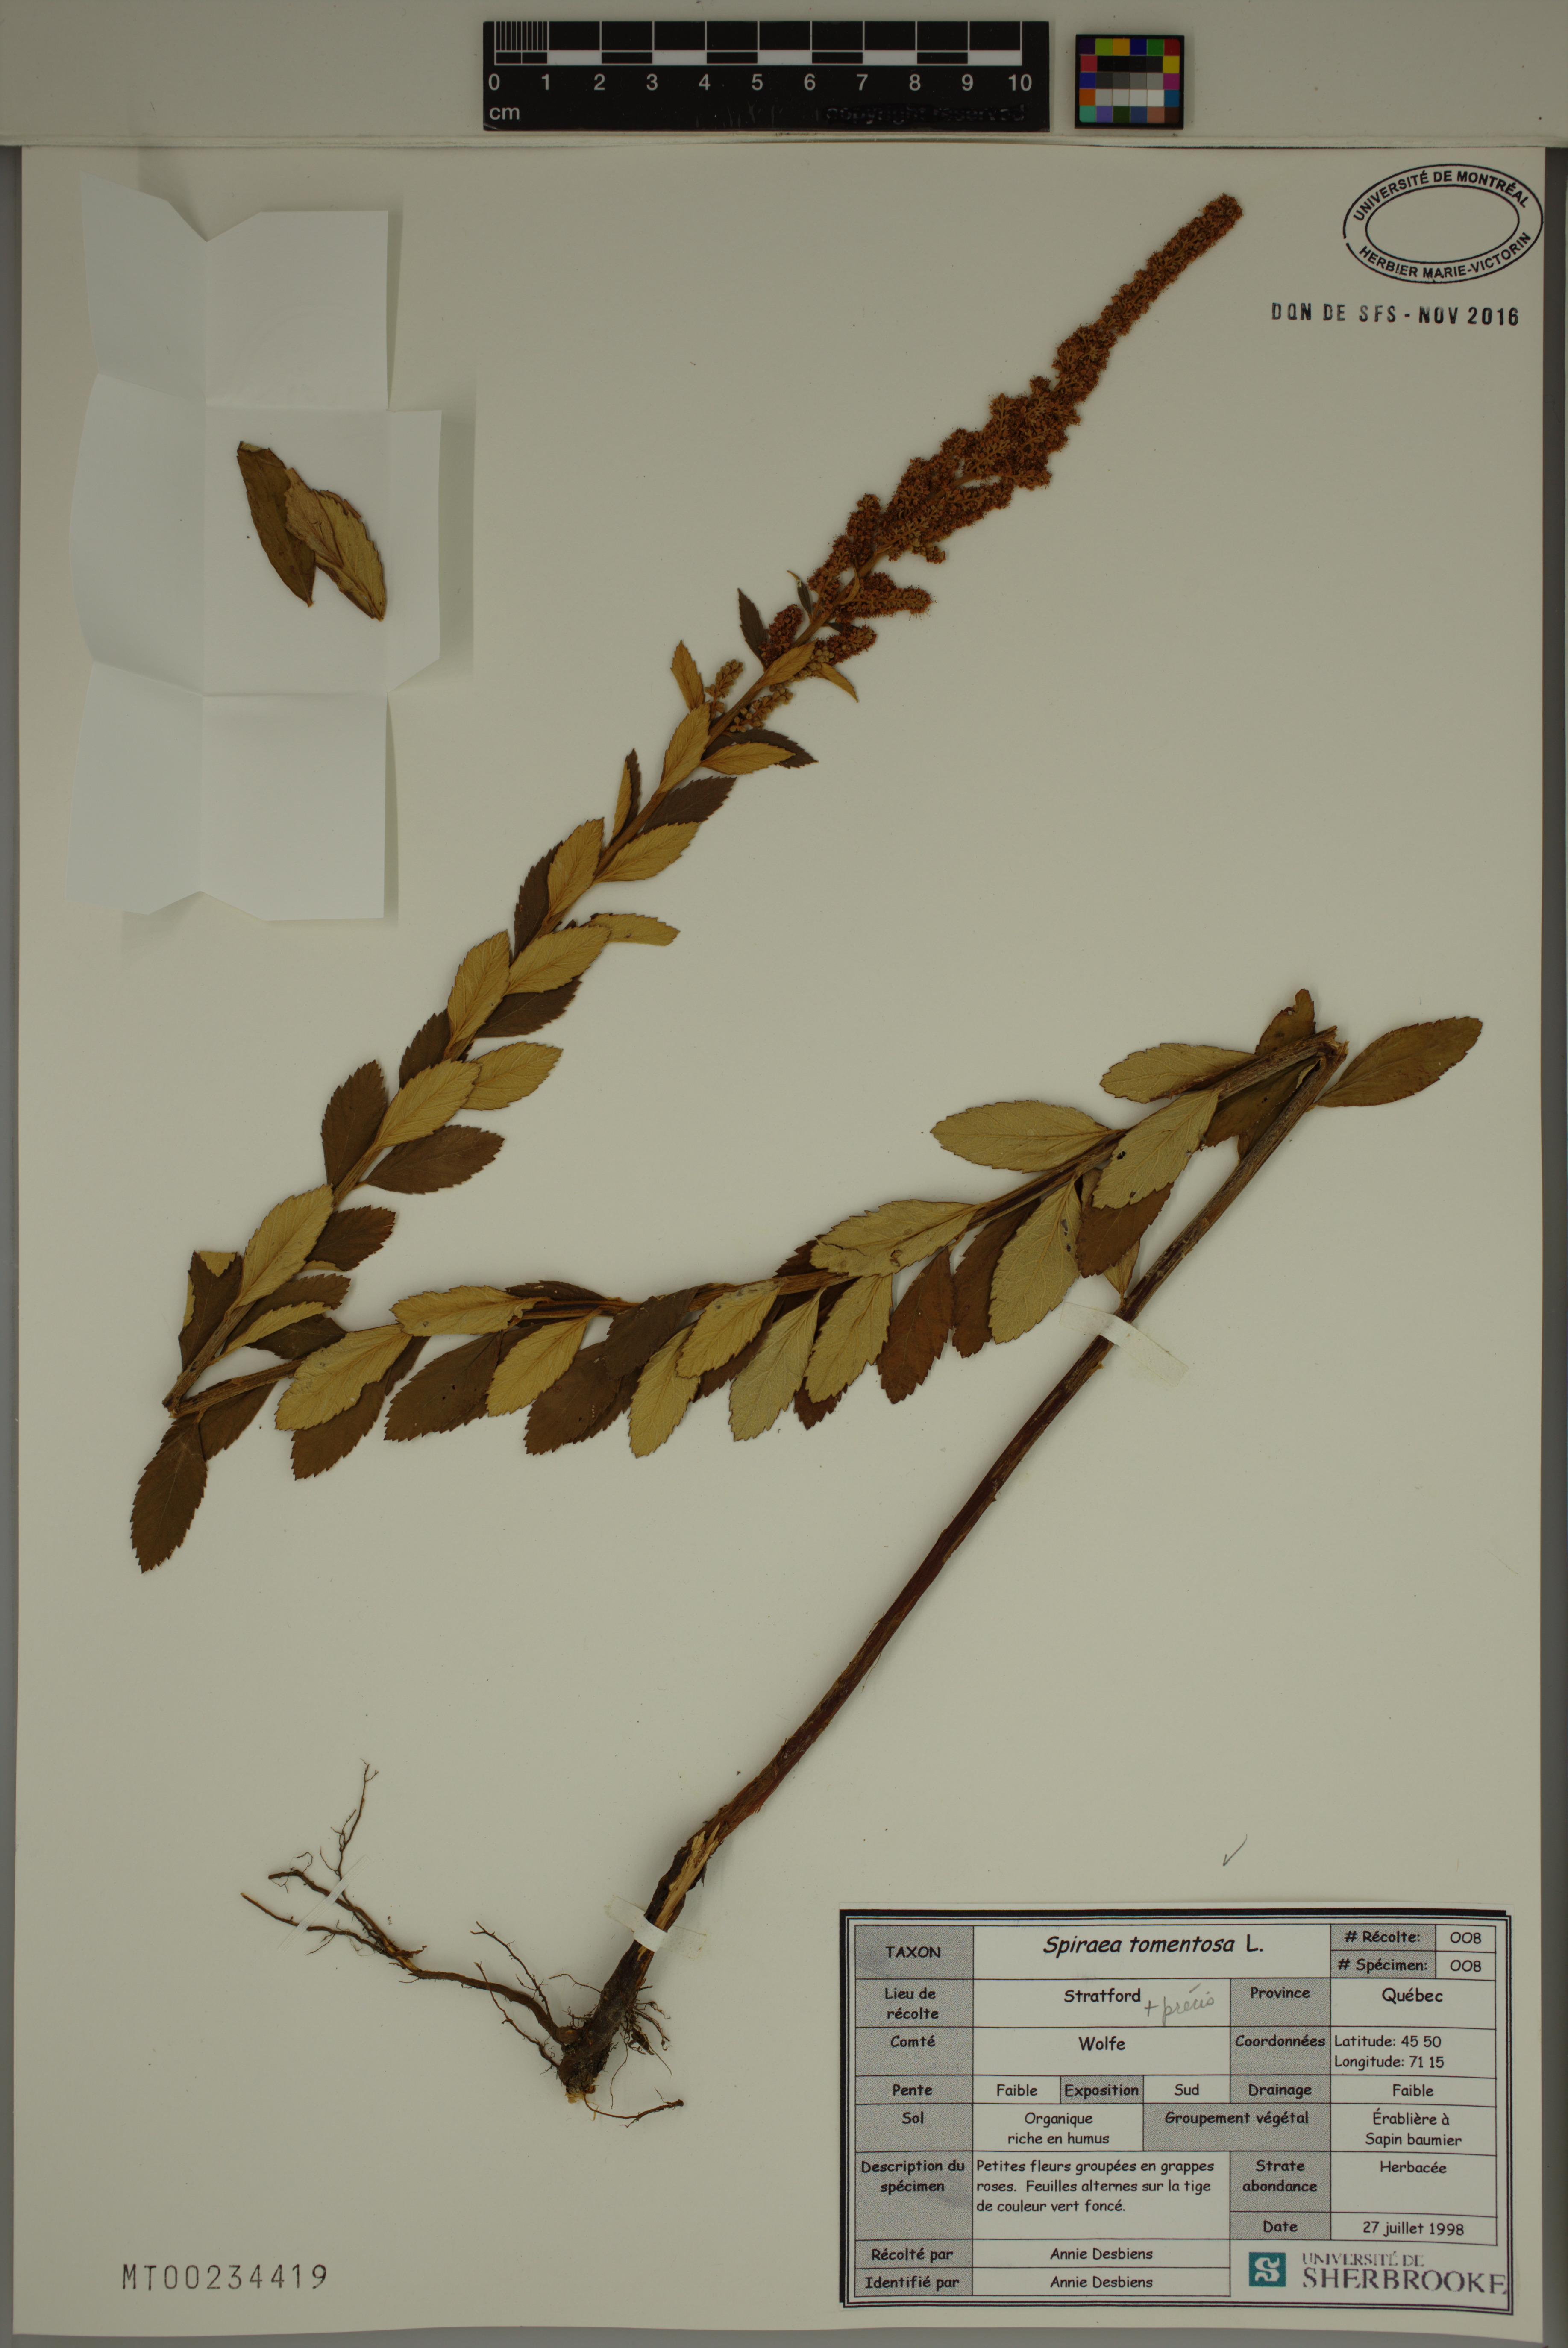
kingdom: Plantae
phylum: Tracheophyta
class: Magnoliopsida
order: Rosales
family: Rosaceae
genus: Spiraea
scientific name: Spiraea tomentosa
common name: Hardhack
